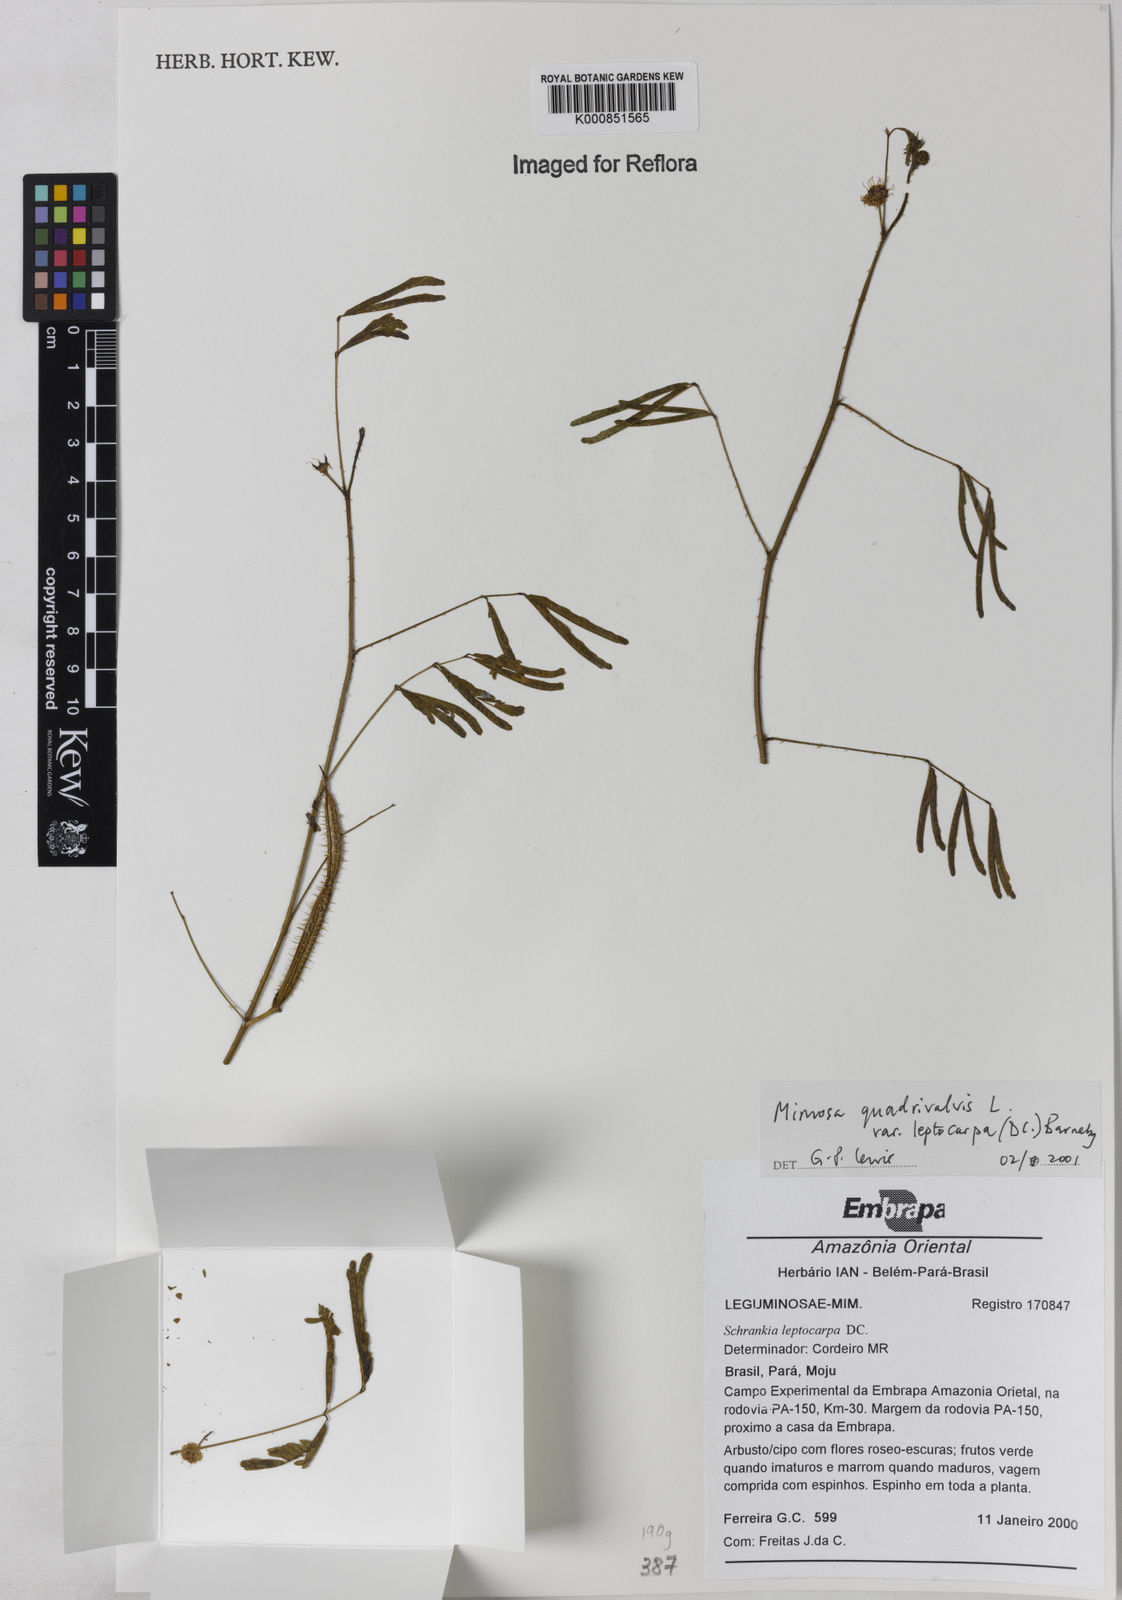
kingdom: Plantae
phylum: Tracheophyta
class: Magnoliopsida
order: Fabales
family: Fabaceae
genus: Mimosa
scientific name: Mimosa candollei
